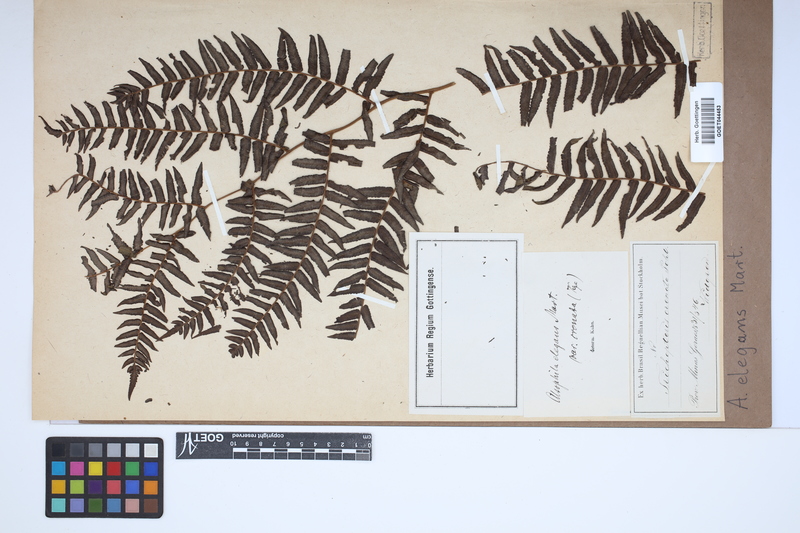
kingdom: Plantae
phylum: Tracheophyta
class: Polypodiopsida
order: Cyatheales
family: Cyatheaceae
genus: Cyathea
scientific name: Cyathea corcovadensis
